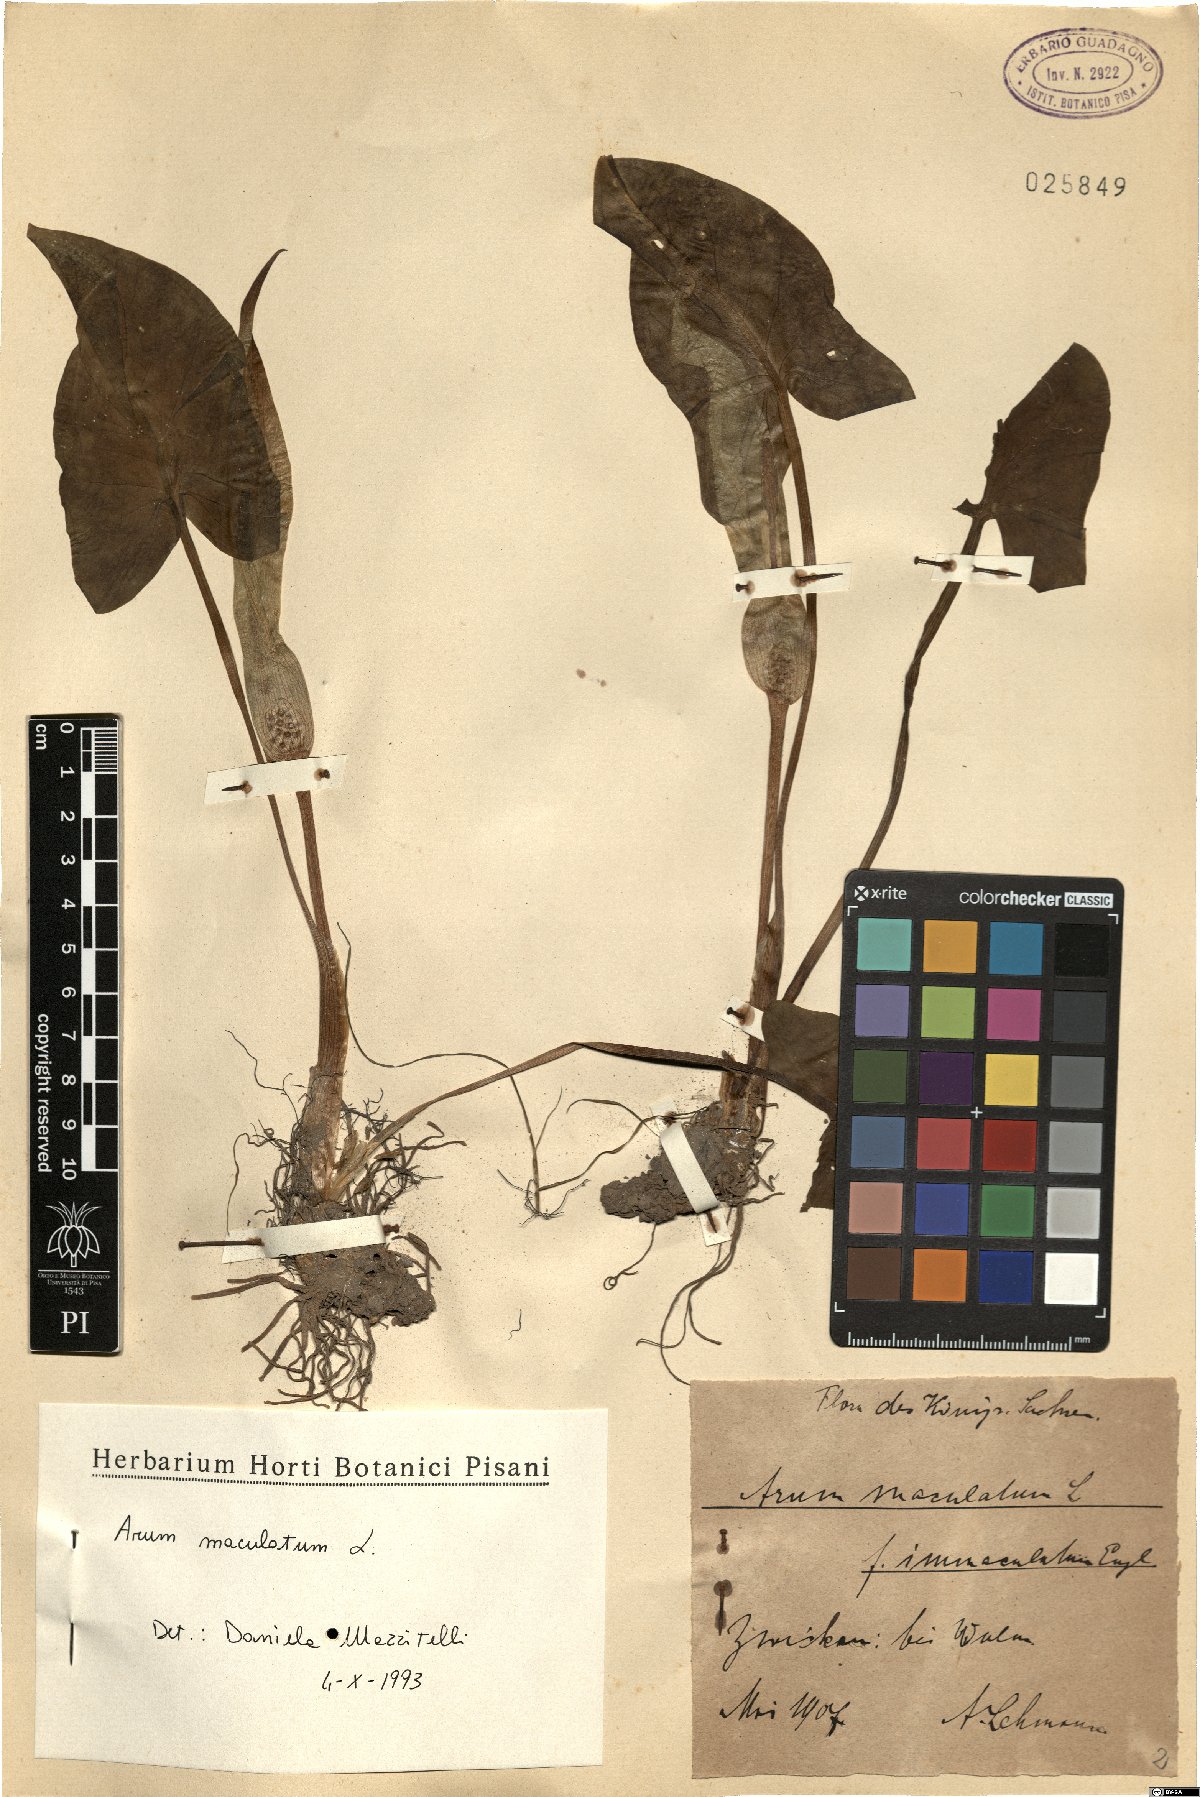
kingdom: Plantae
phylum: Tracheophyta
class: Liliopsida
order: Alismatales
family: Araceae
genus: Arum
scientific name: Arum maculatum
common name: Lords-and-ladies
